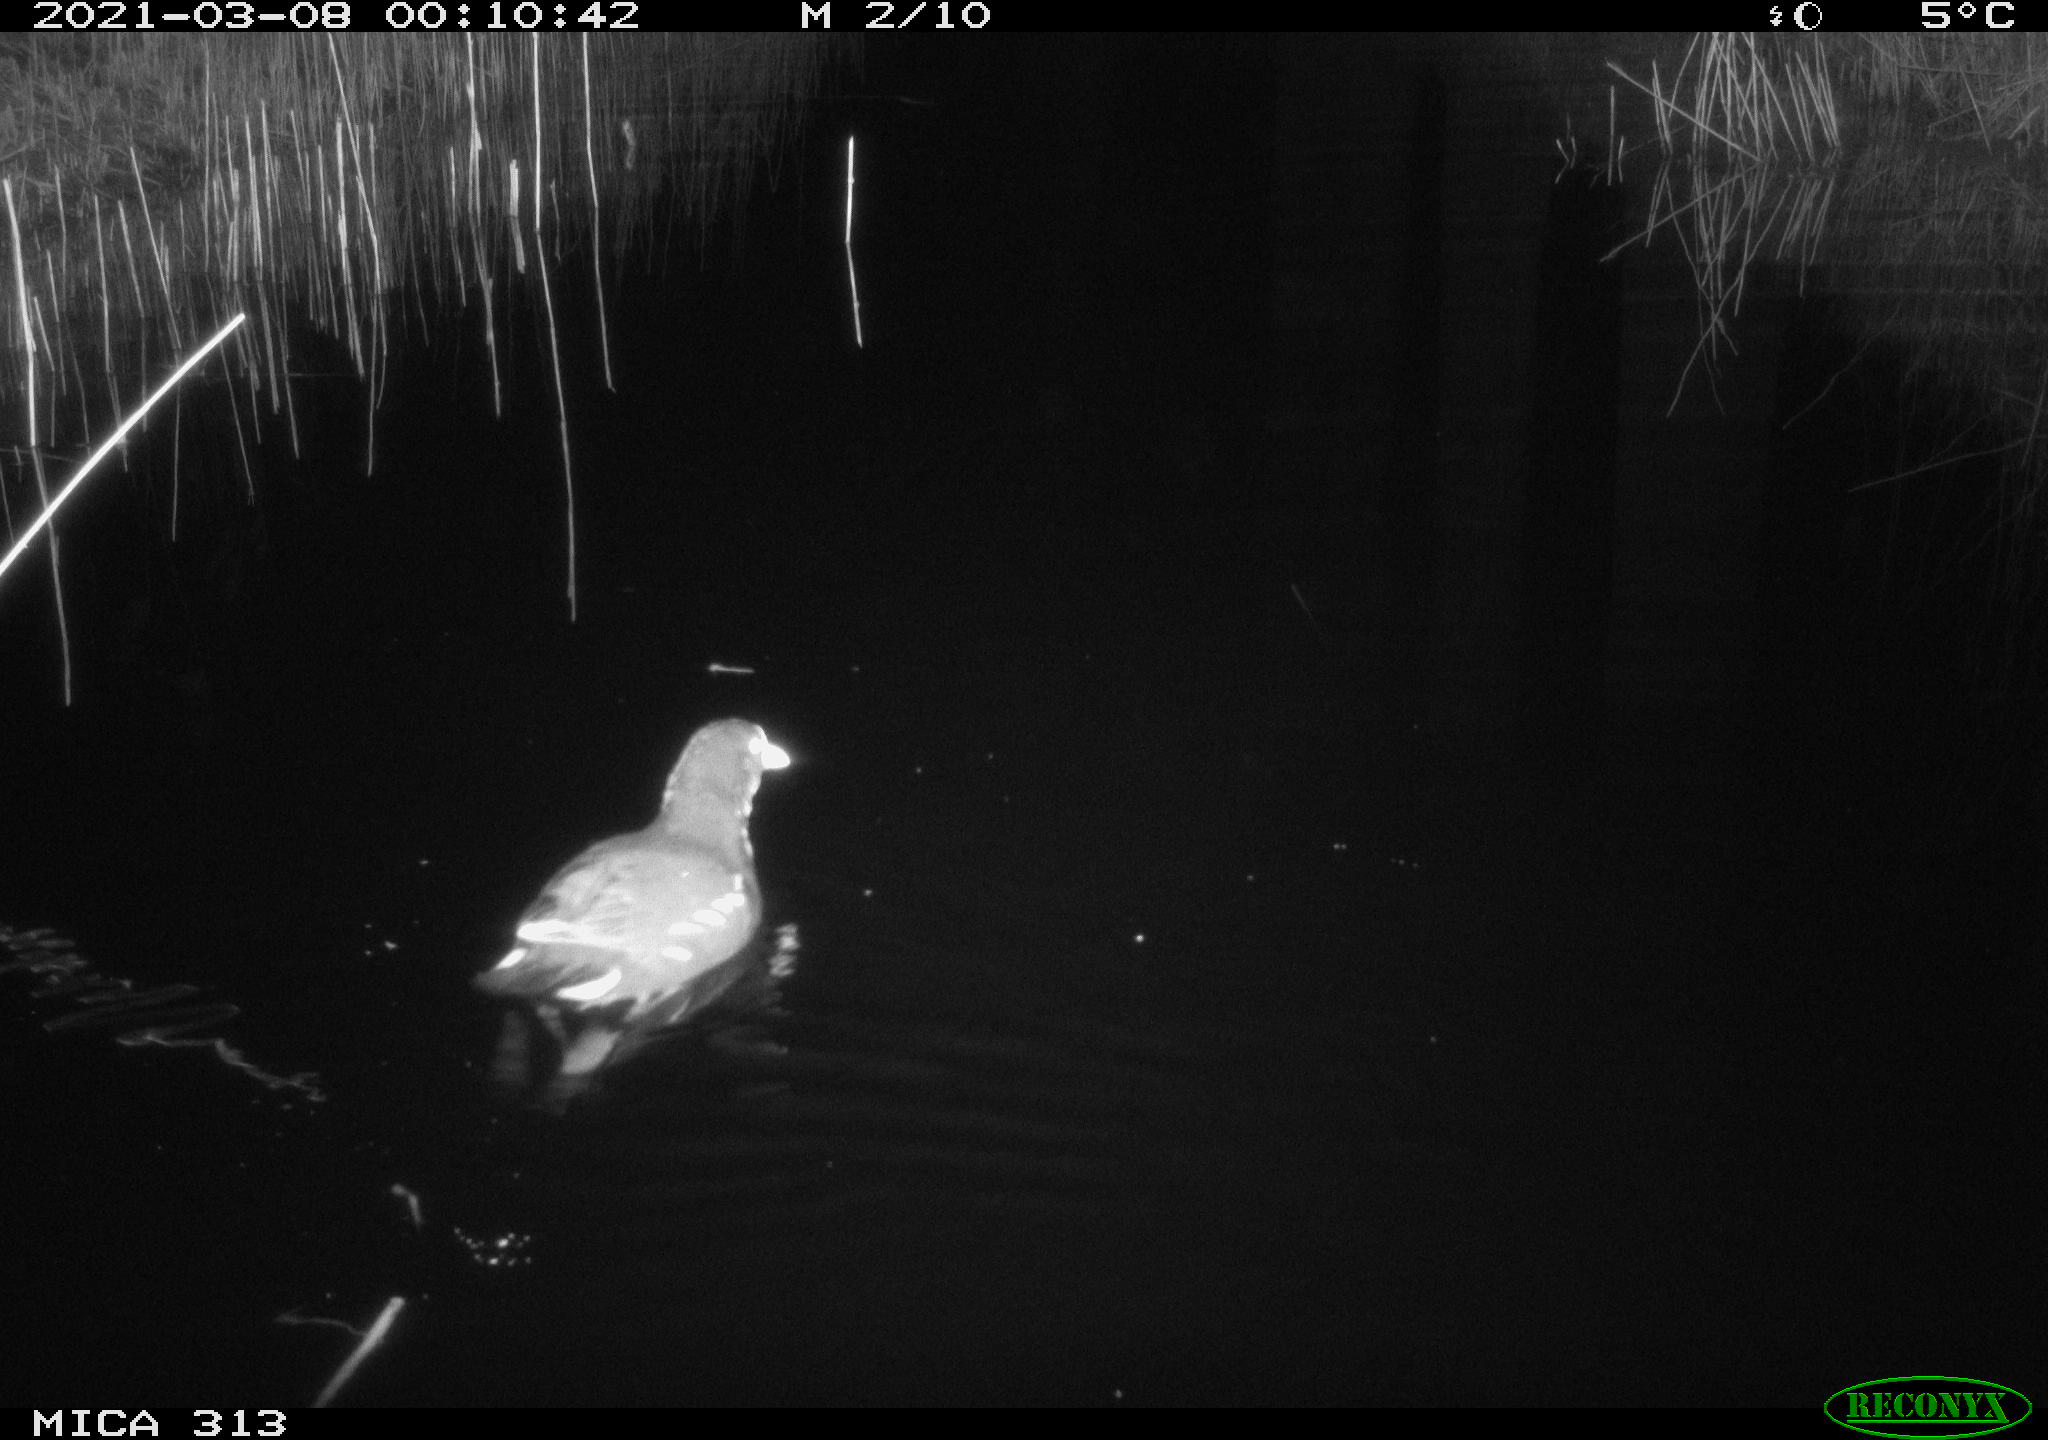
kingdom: Animalia
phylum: Chordata
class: Aves
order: Gruiformes
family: Rallidae
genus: Gallinula
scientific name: Gallinula chloropus
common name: Common moorhen
